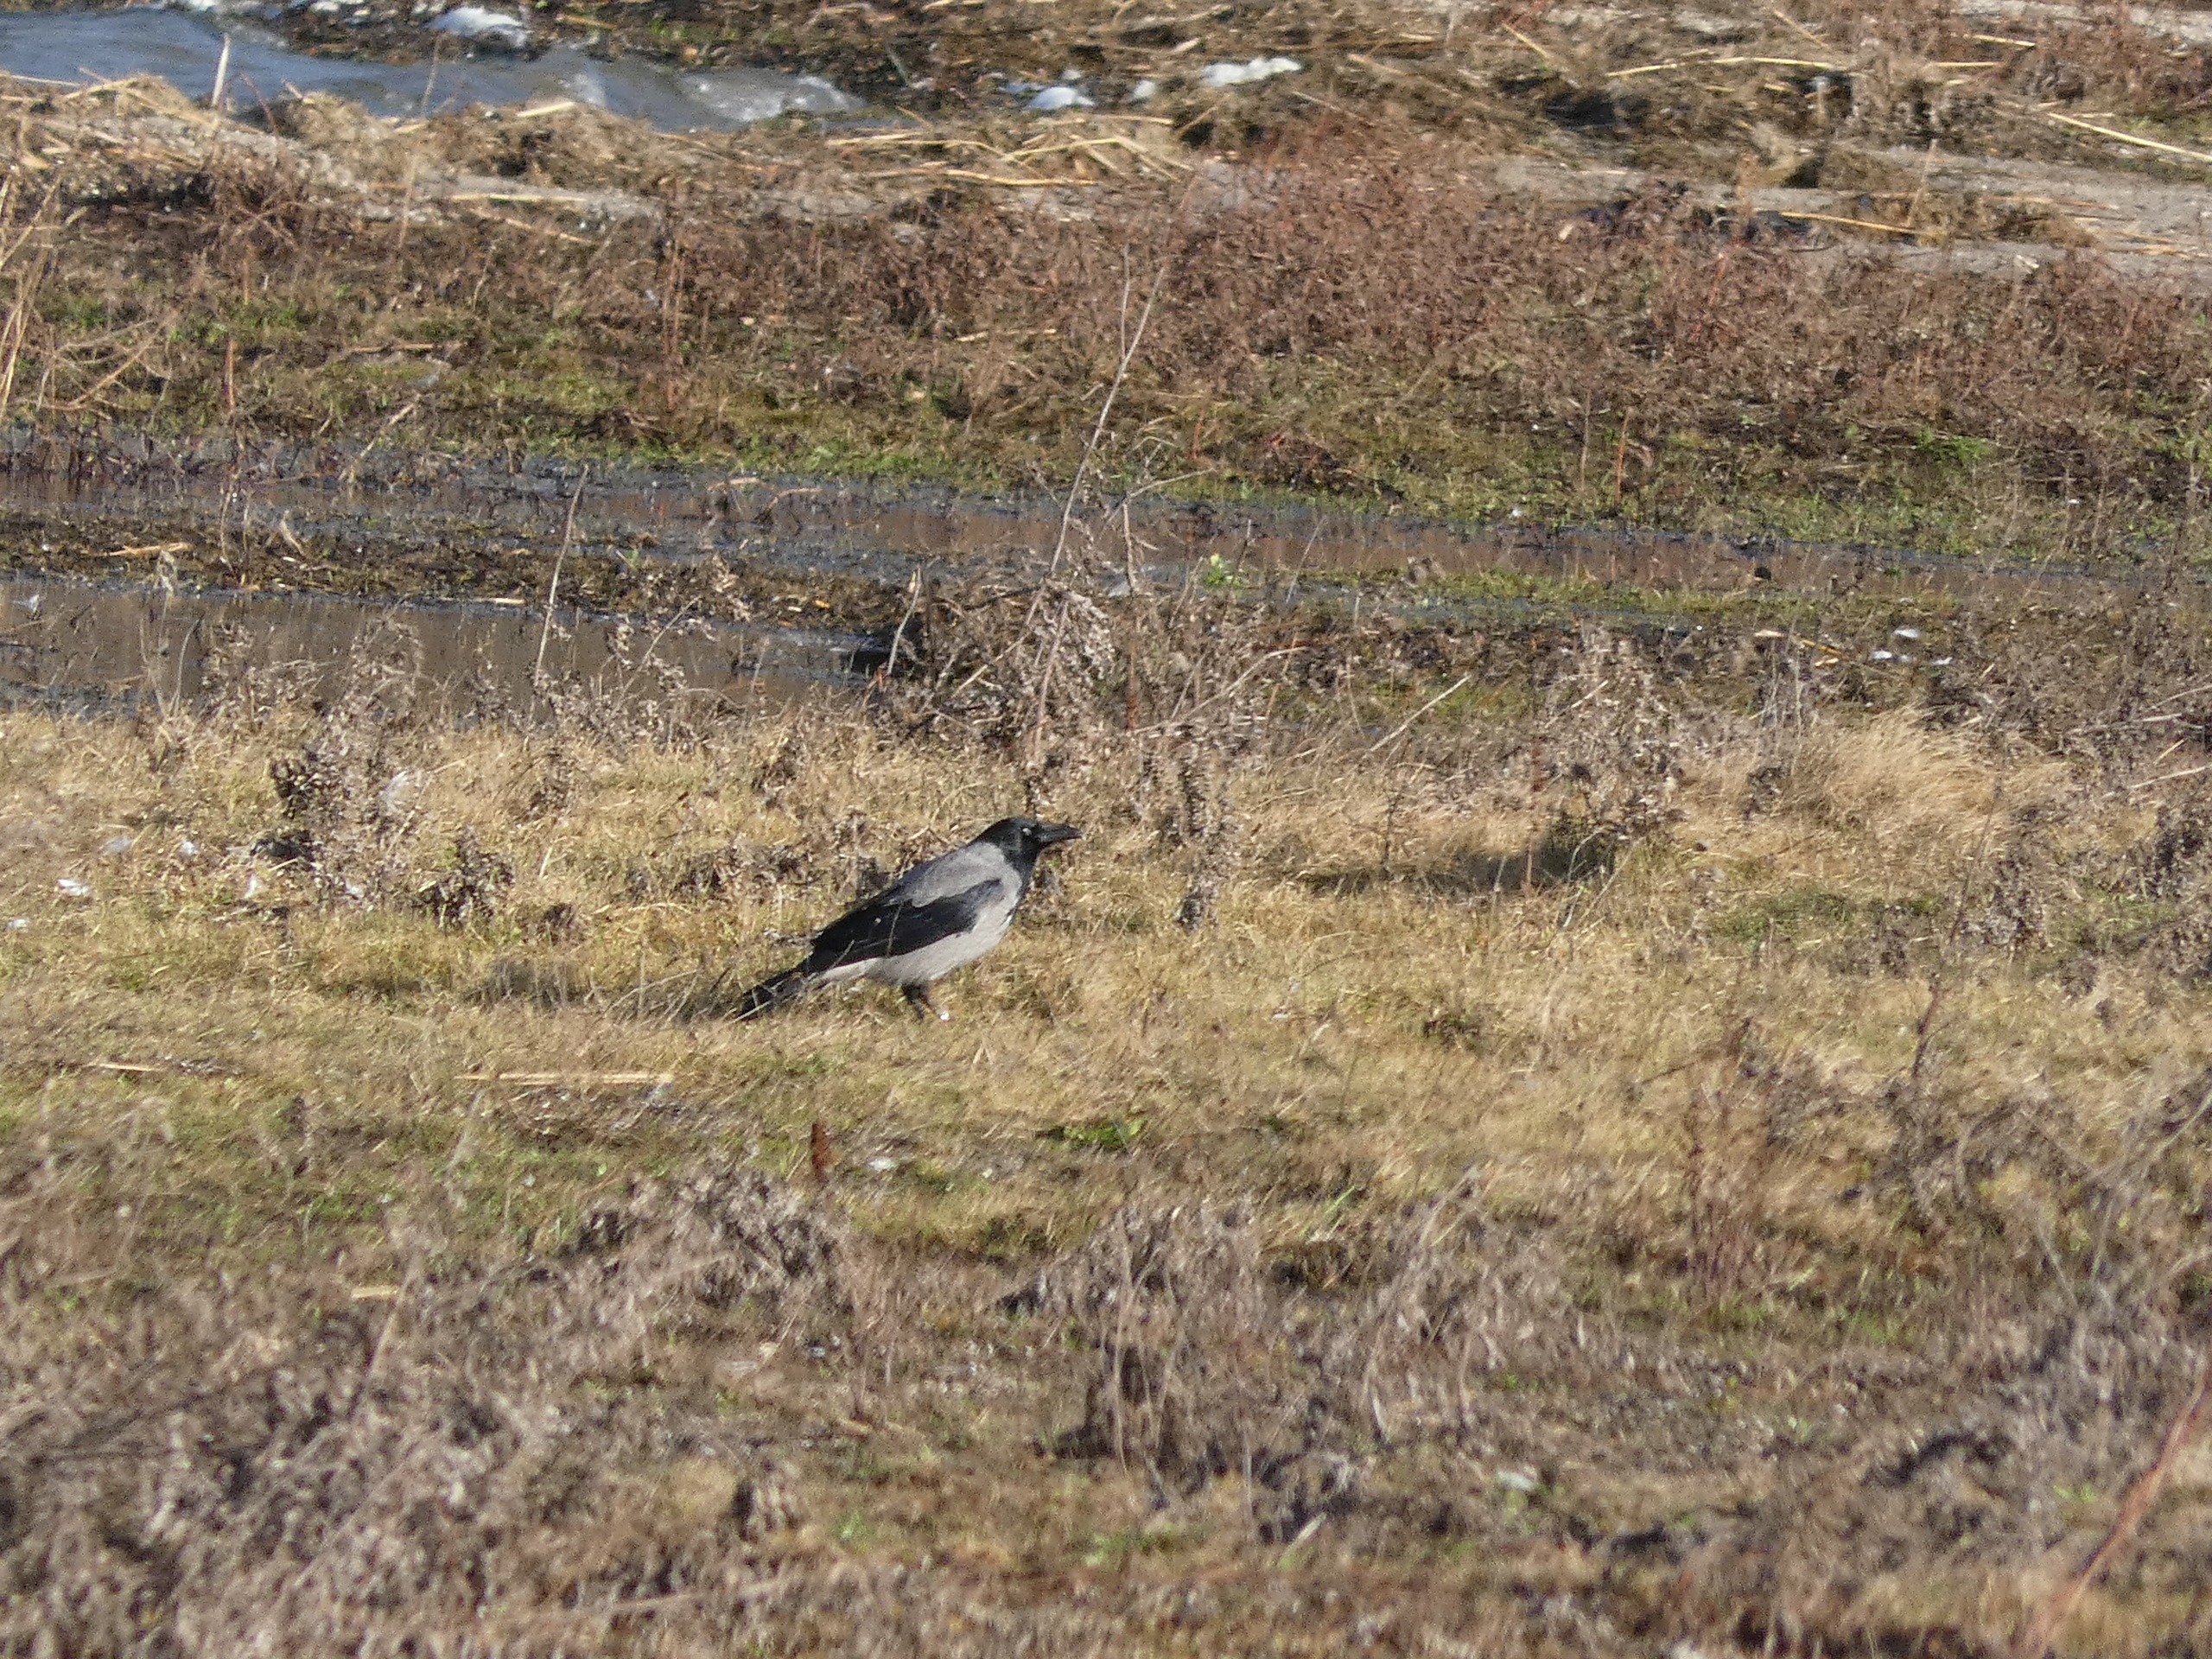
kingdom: Animalia
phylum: Chordata
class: Aves
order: Passeriformes
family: Corvidae
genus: Corvus
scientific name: Corvus cornix
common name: Gråkrage
